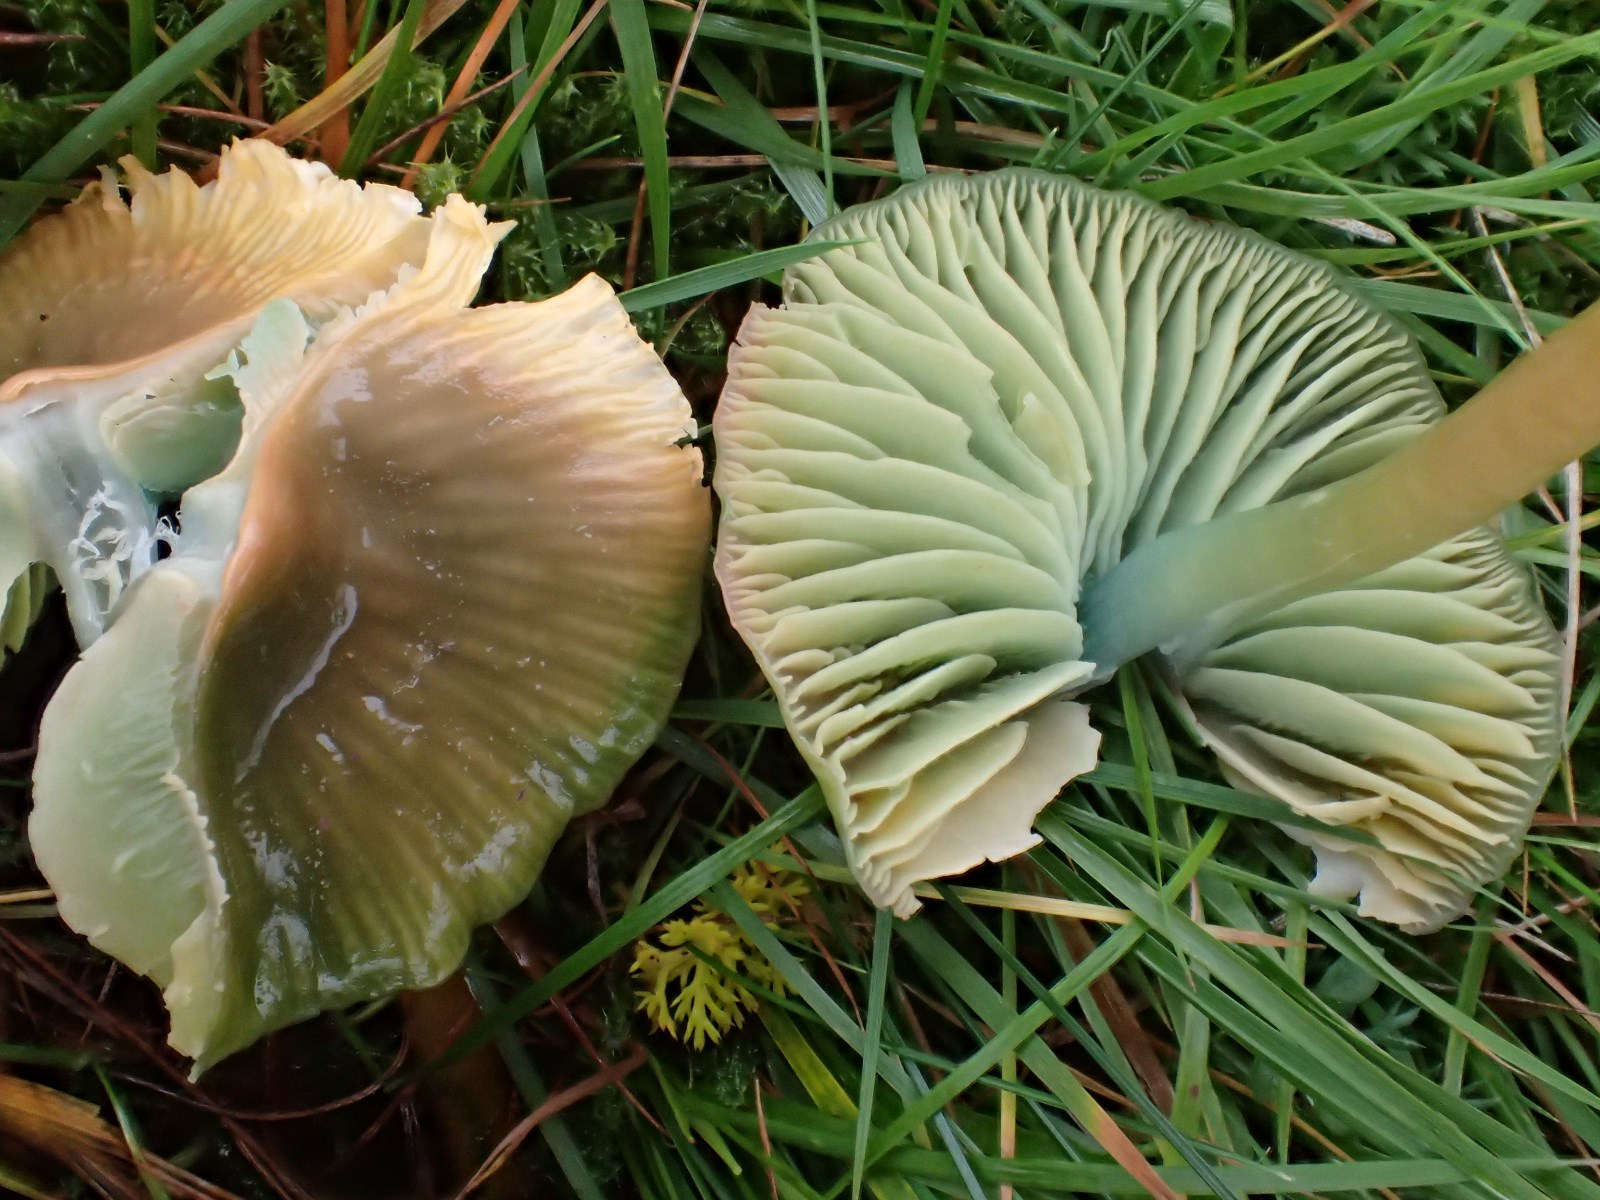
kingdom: Fungi
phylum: Basidiomycota
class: Agaricomycetes
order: Agaricales
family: Hygrophoraceae
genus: Gliophorus
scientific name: Gliophorus psittacinus
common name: papegøje-vokshat
